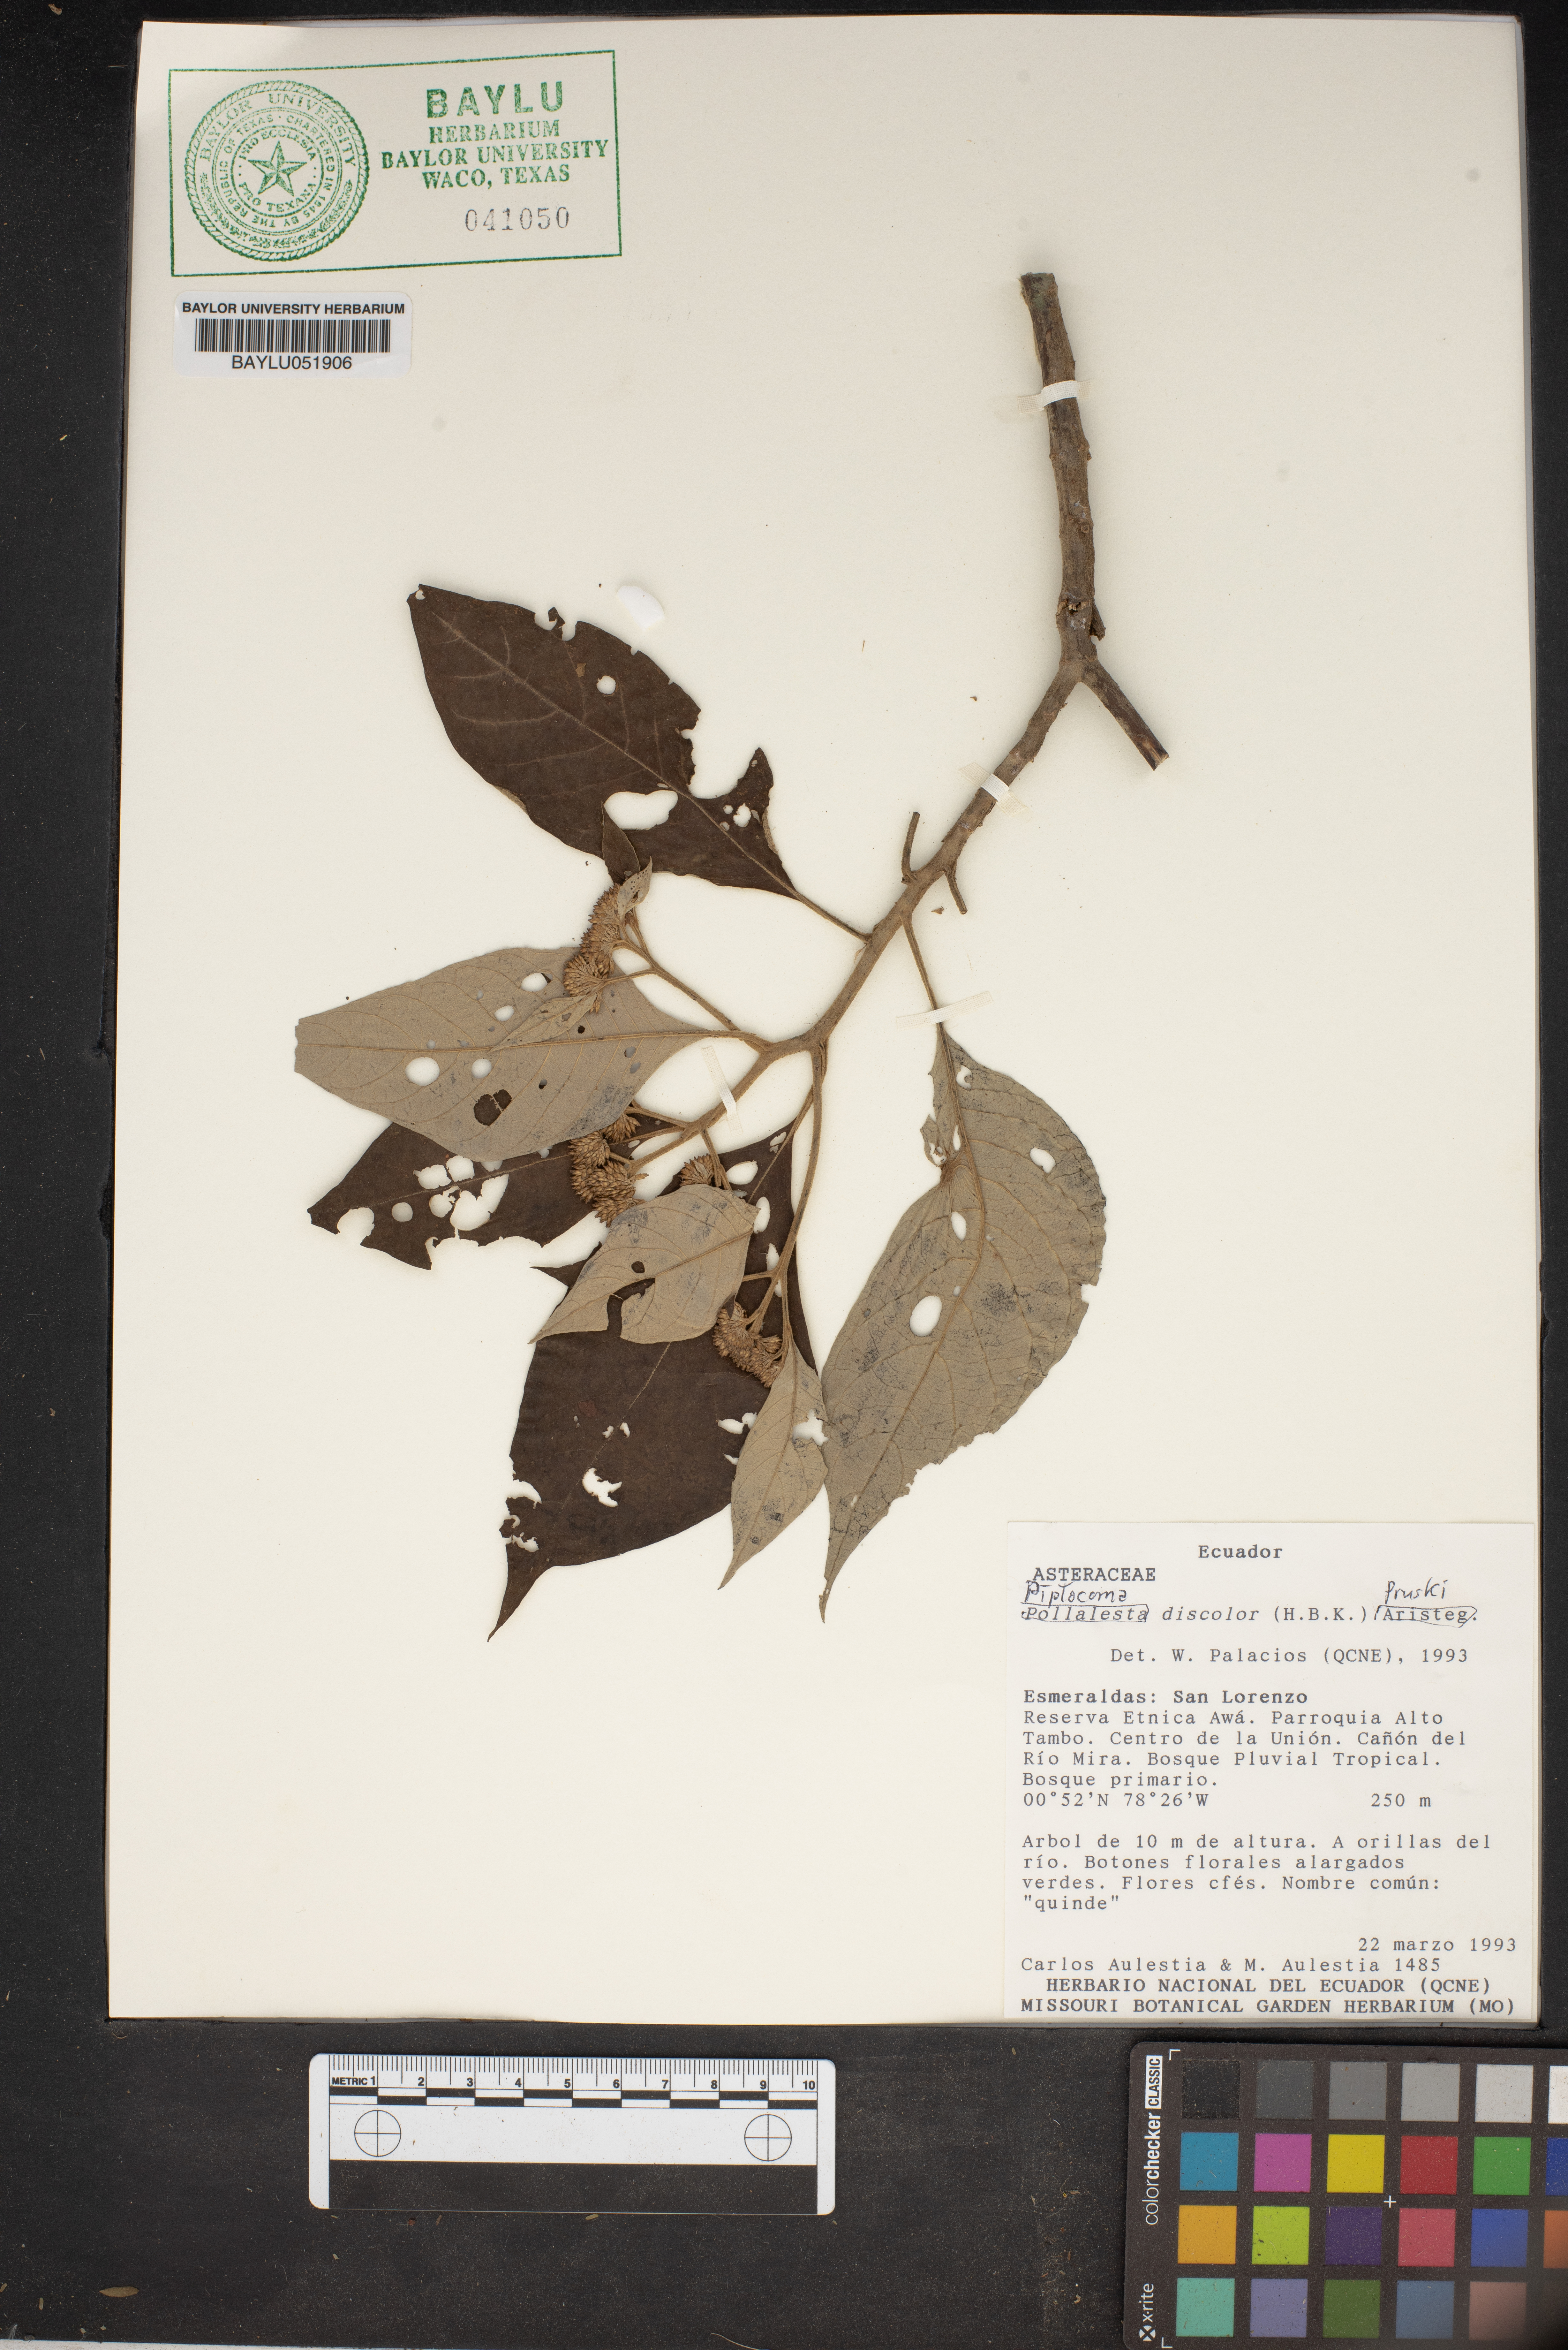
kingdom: Plantae
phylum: Tracheophyta
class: Magnoliopsida
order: Asterales
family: Asteraceae
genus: Diplocoma
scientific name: Diplocoma
